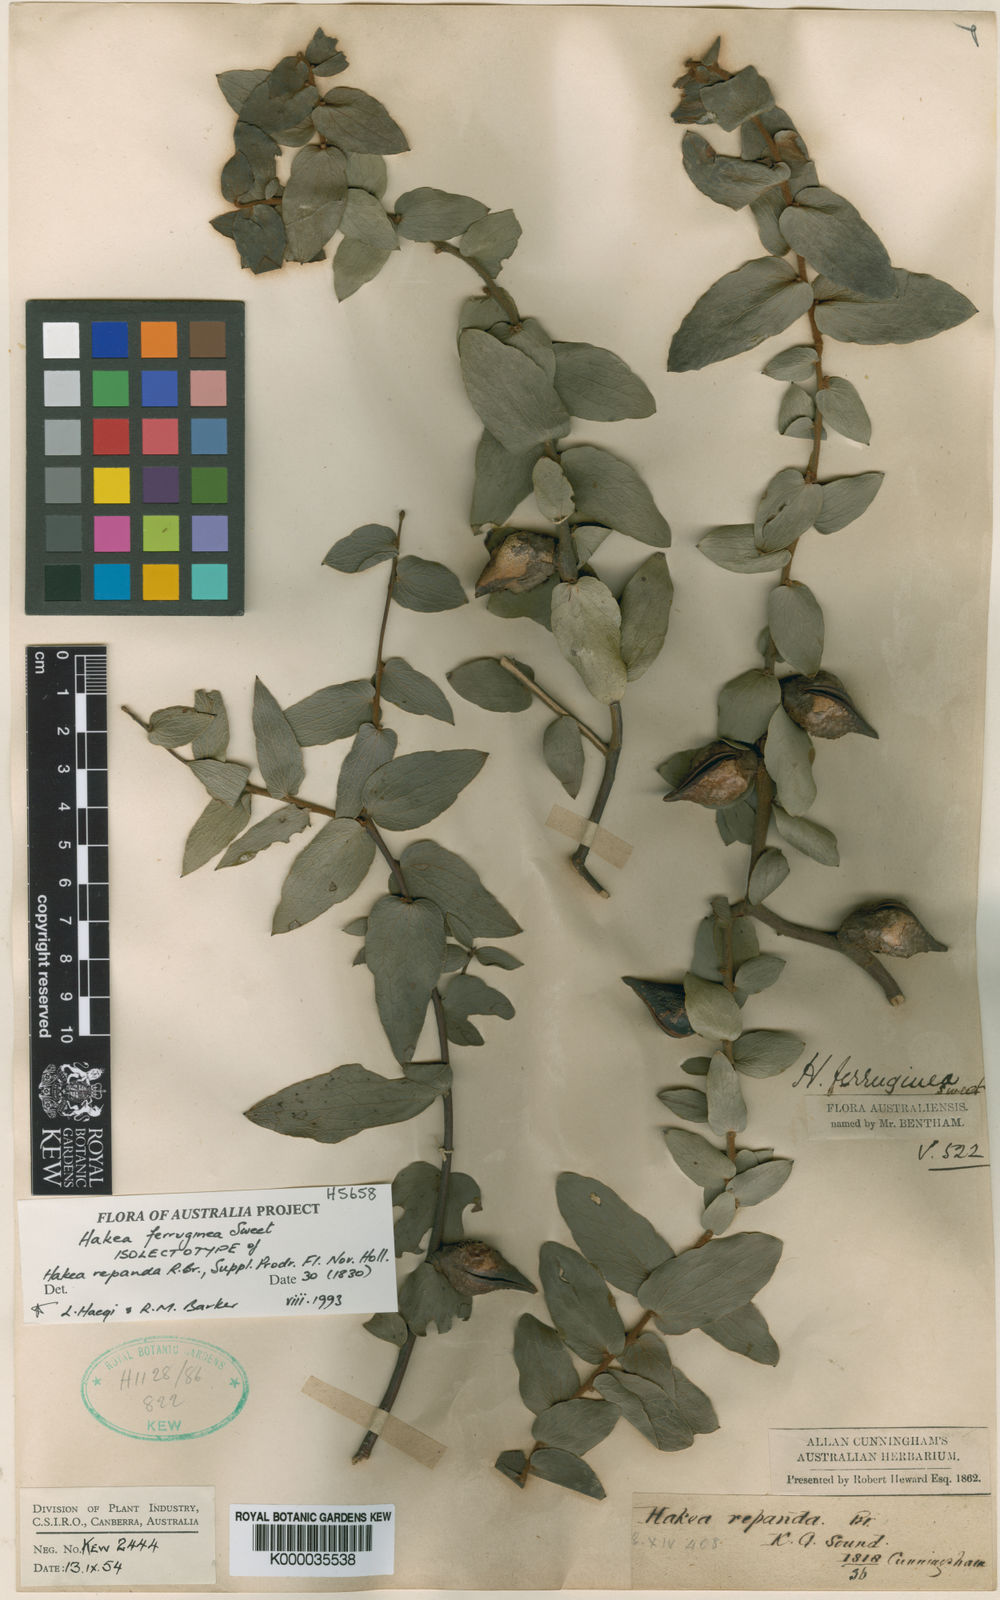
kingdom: Plantae
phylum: Tracheophyta
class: Magnoliopsida
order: Proteales
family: Proteaceae
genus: Hakea
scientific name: Hakea ferruginea
